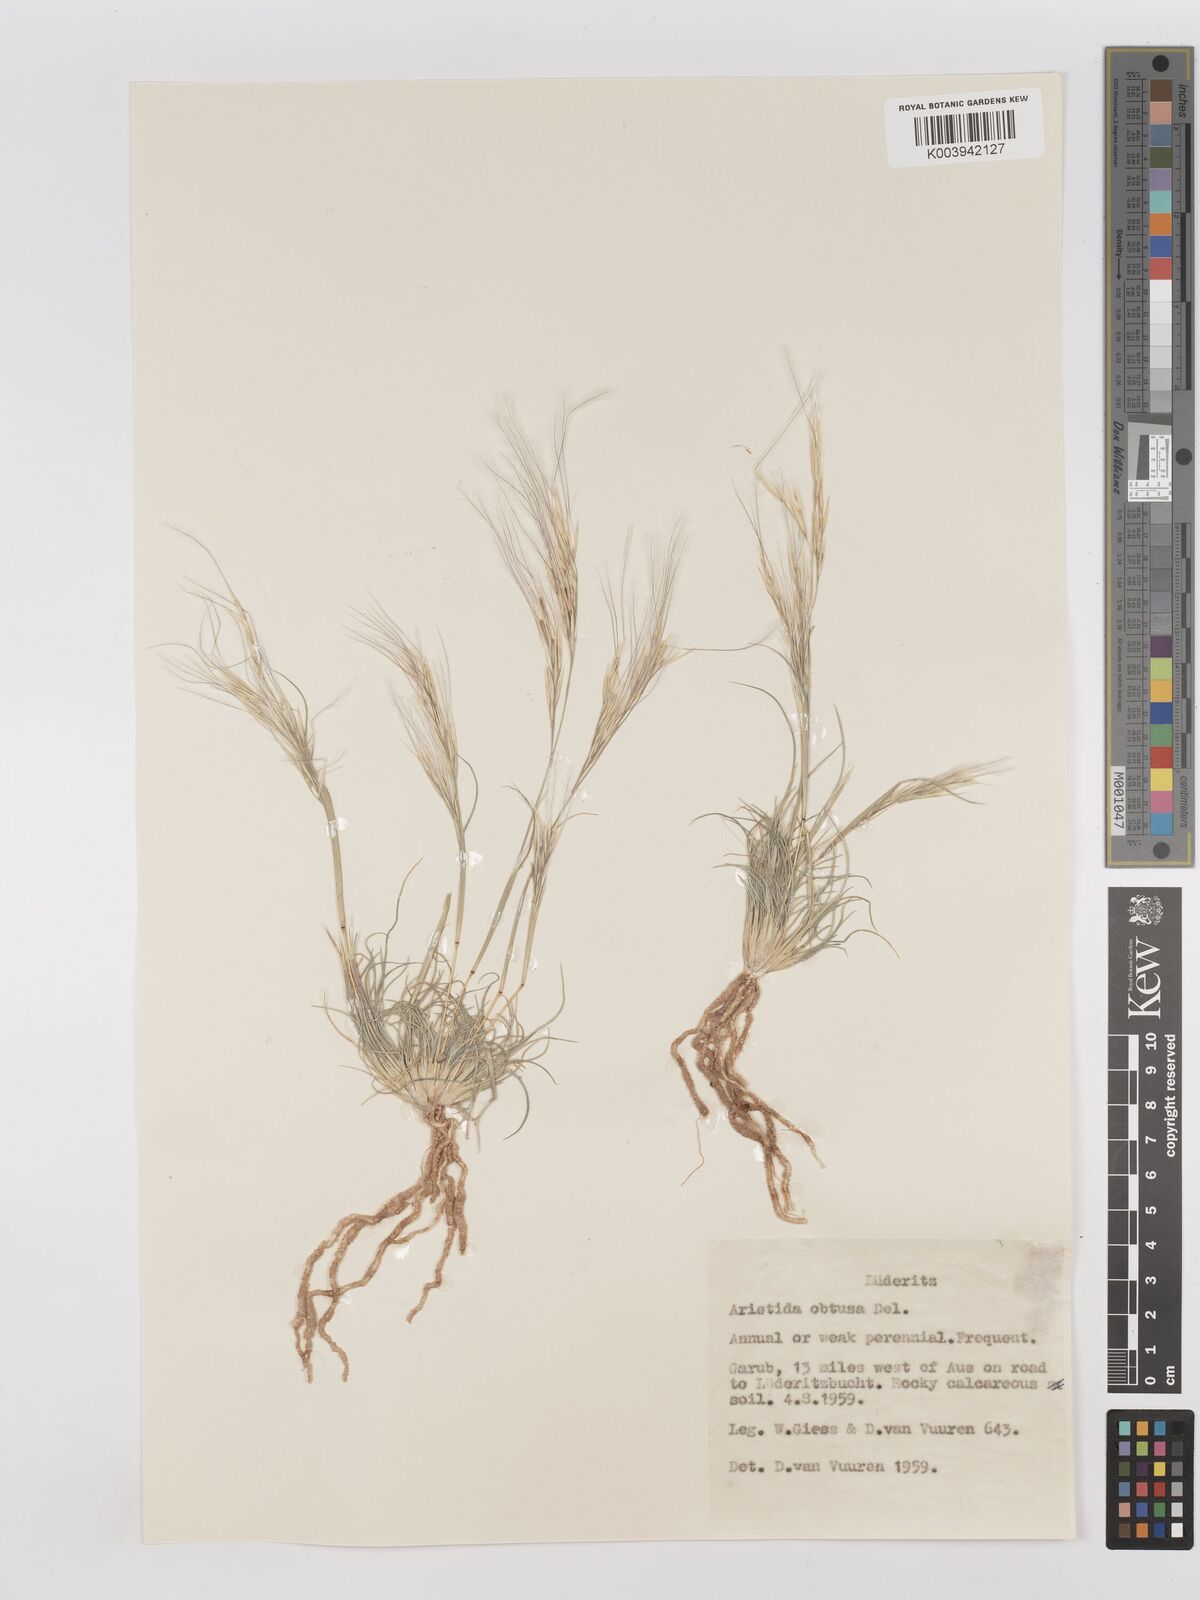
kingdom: Plantae
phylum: Tracheophyta
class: Liliopsida
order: Poales
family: Poaceae
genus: Stipagrostis
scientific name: Stipagrostis obtusa
